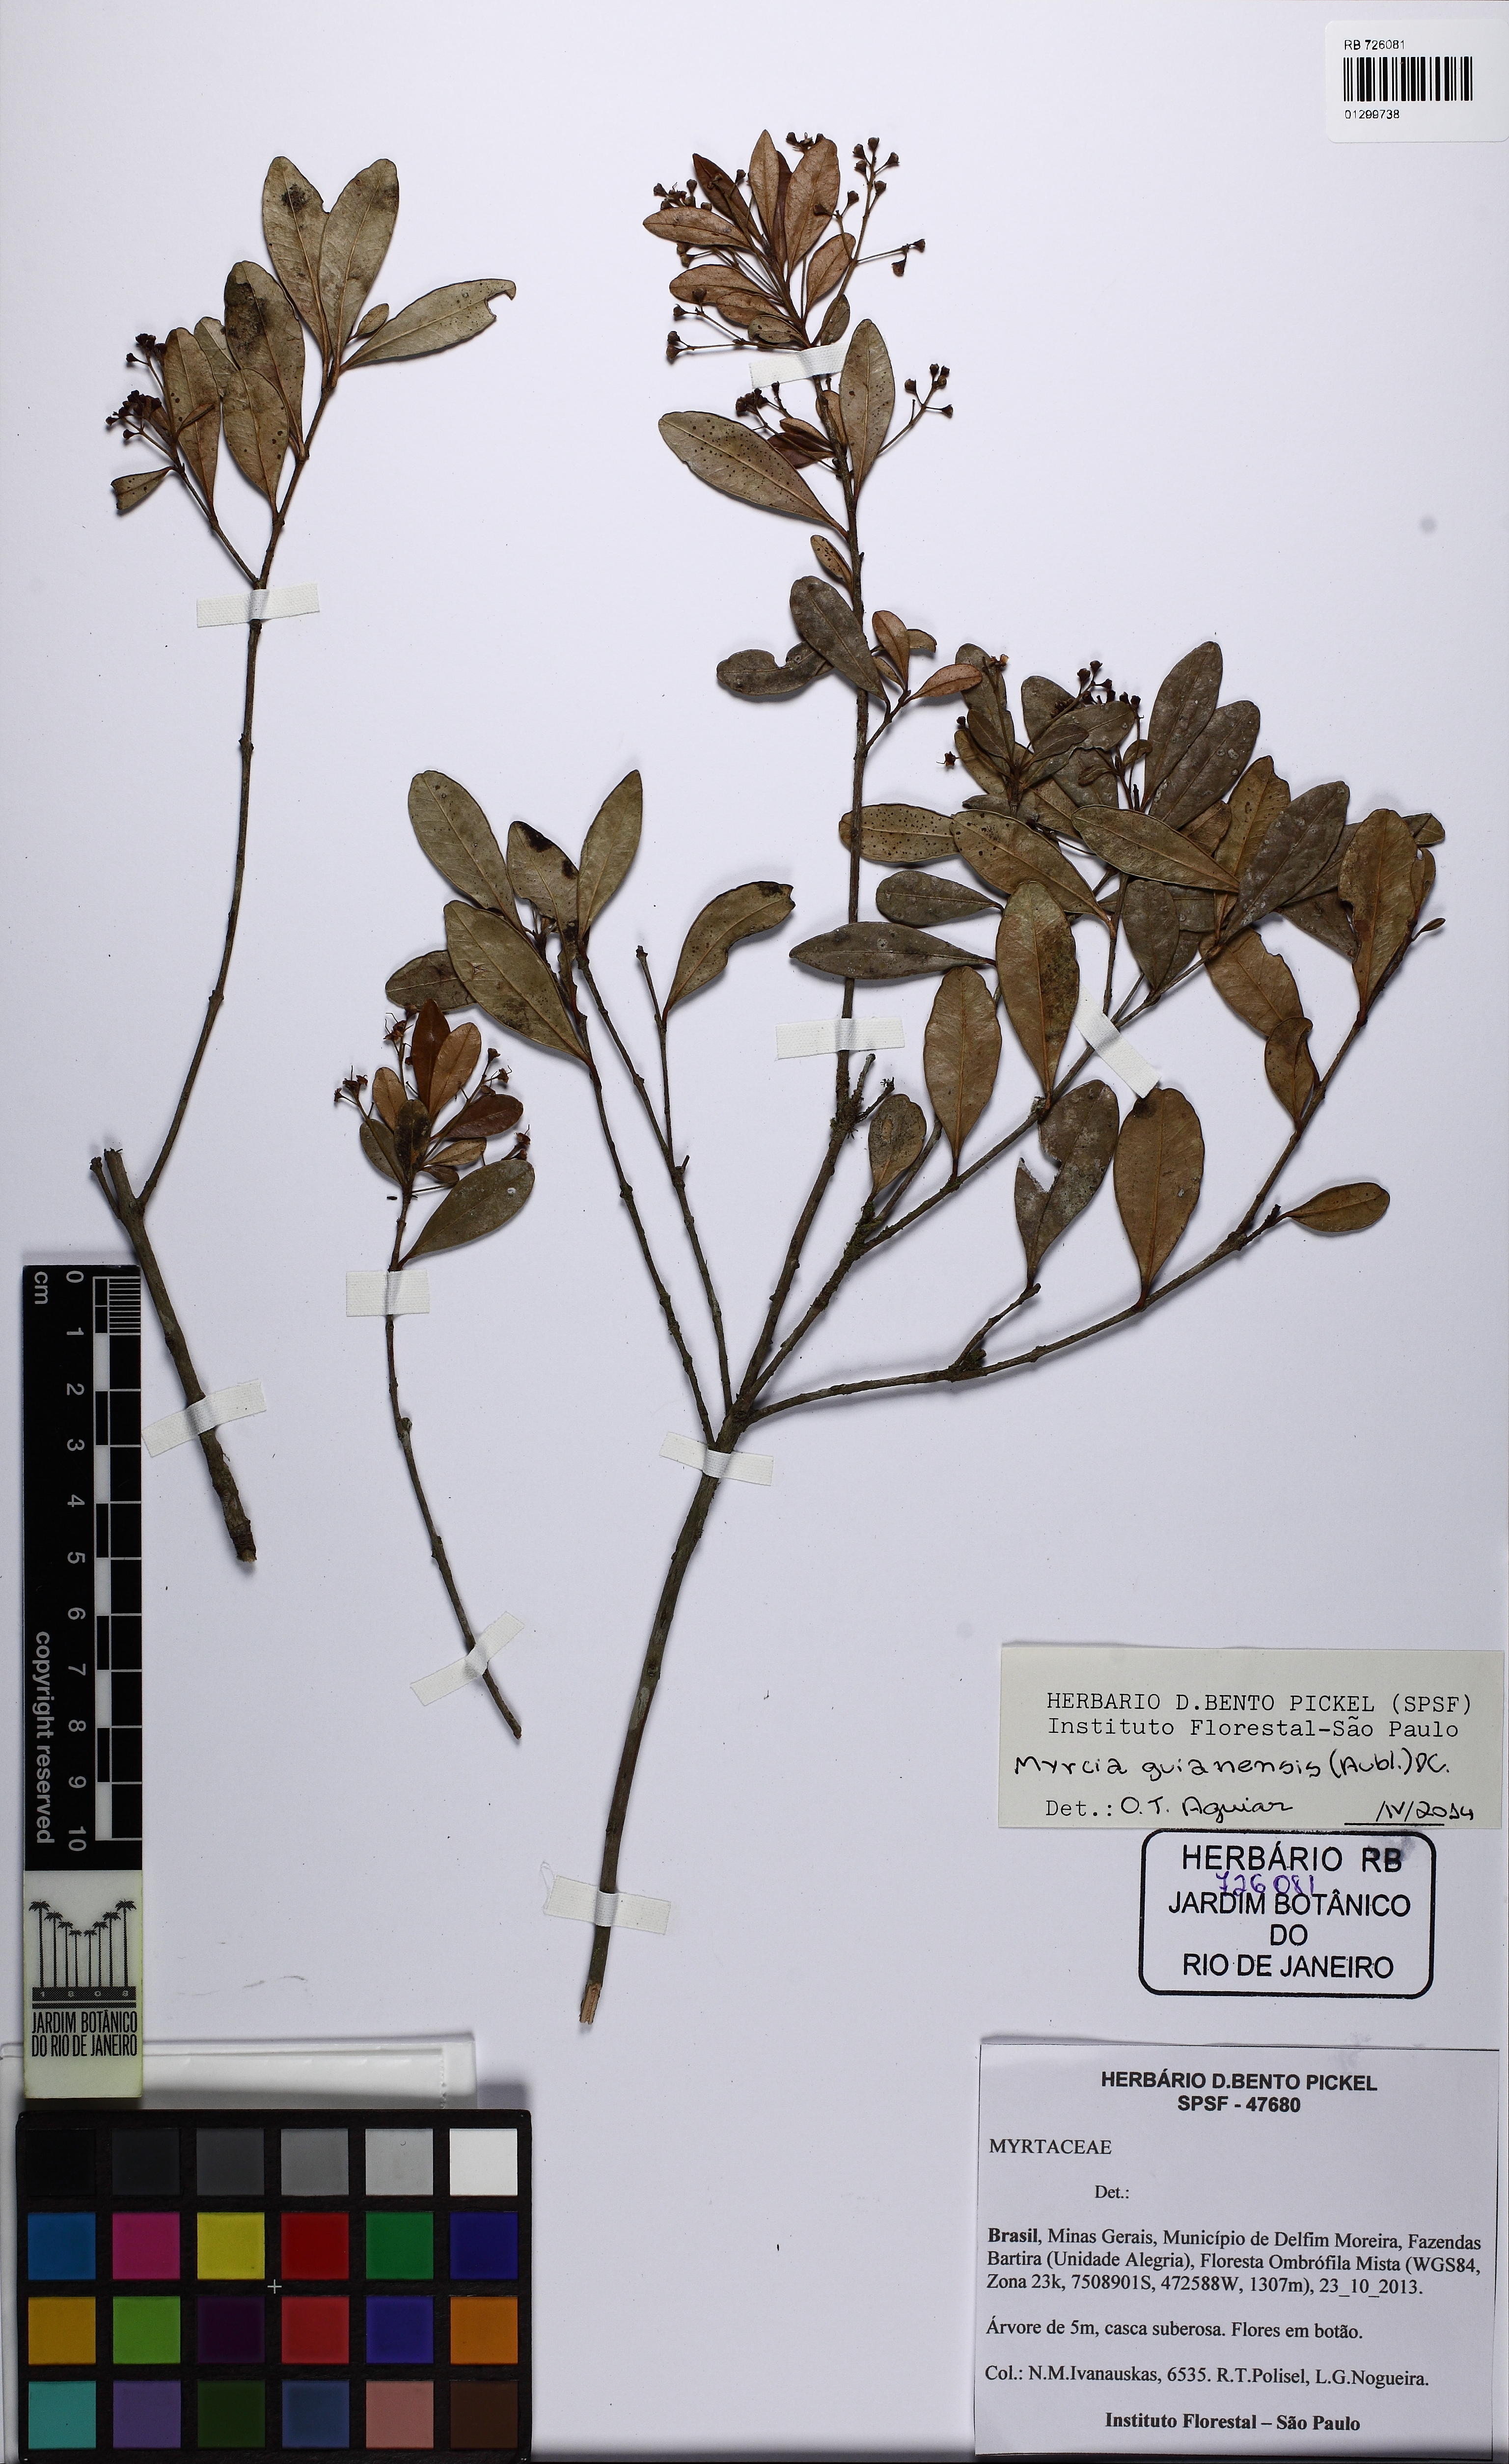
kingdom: Plantae
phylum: Tracheophyta
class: Magnoliopsida
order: Myrtales
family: Myrtaceae
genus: Myrcia
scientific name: Myrcia guianensis
